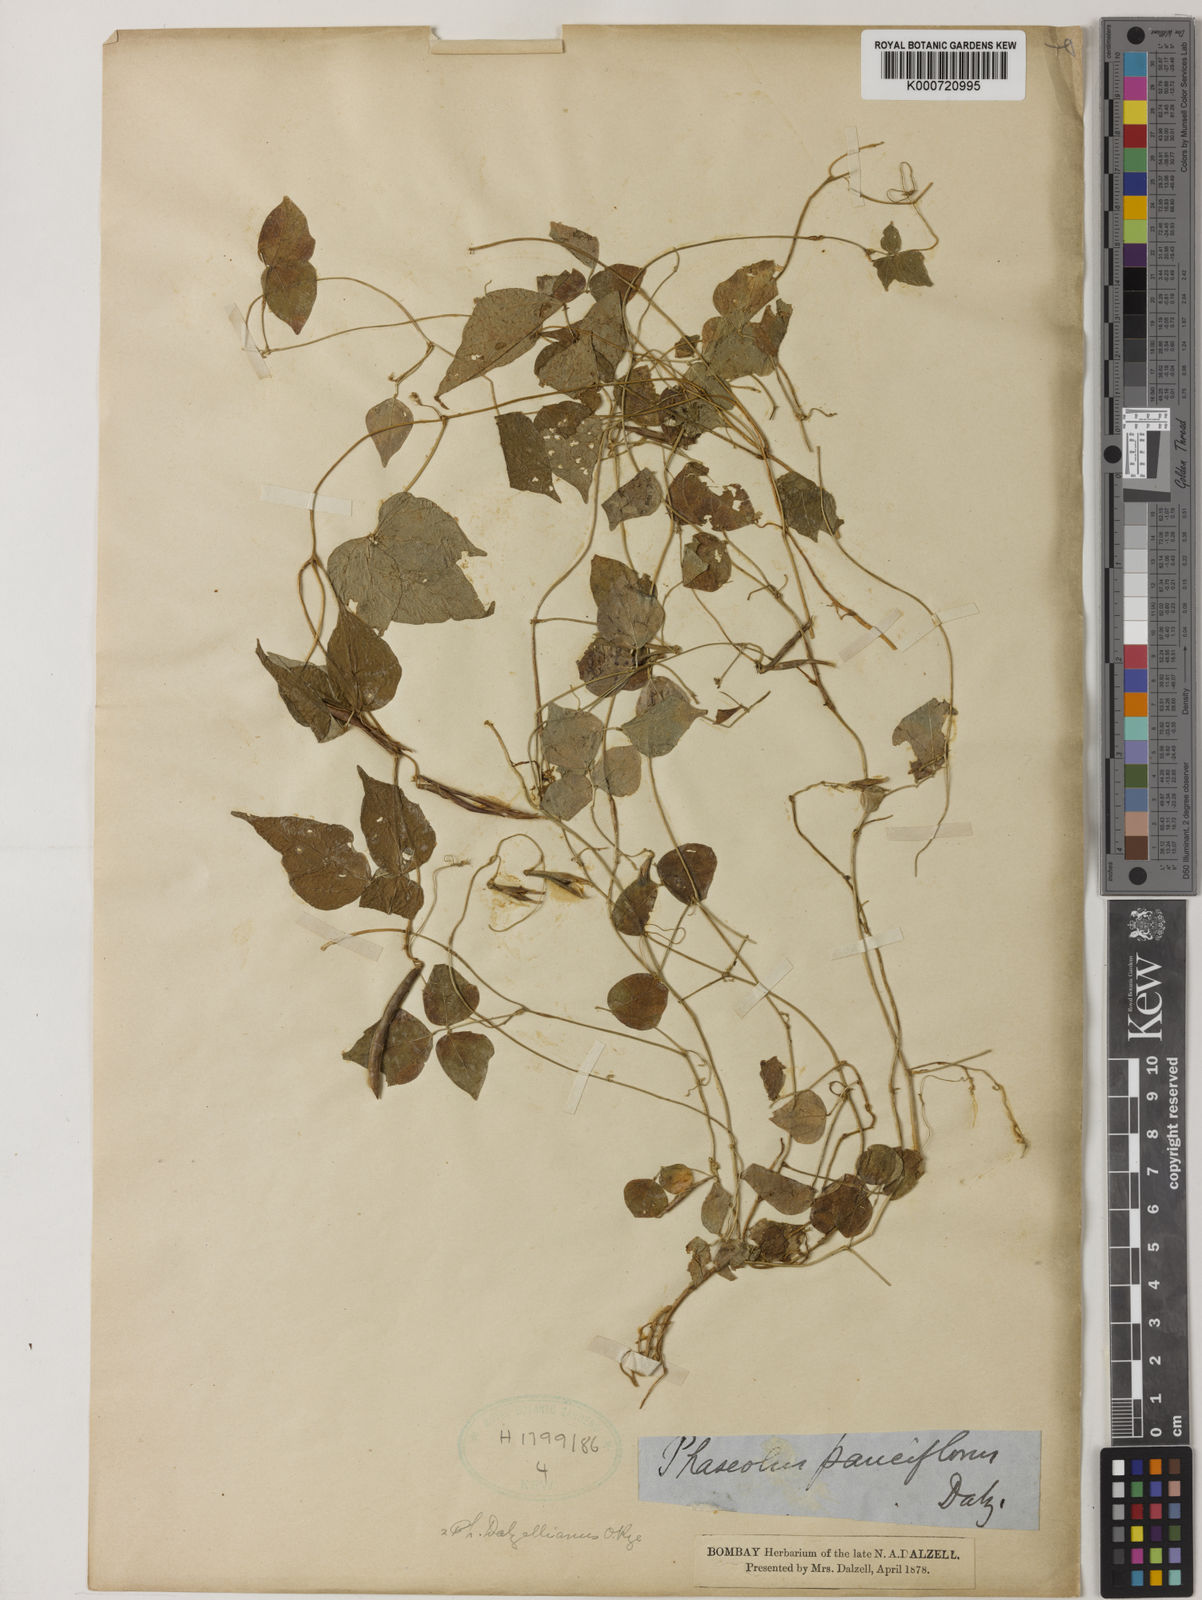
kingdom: Plantae
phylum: Tracheophyta
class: Magnoliopsida
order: Fabales
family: Fabaceae
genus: Vigna
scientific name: Vigna dalzelliana
